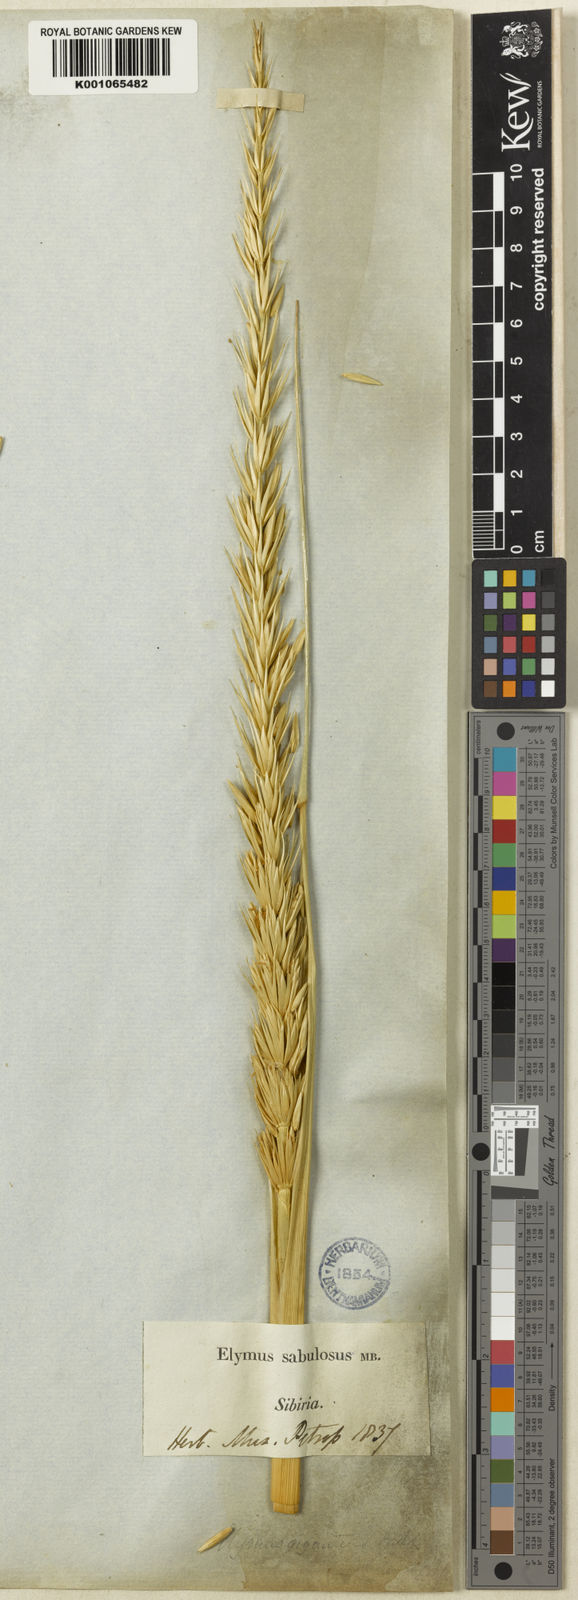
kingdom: Plantae
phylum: Tracheophyta
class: Liliopsida
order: Poales
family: Poaceae
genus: Leymus
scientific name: Leymus racemosus
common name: Mammoth wildrye
